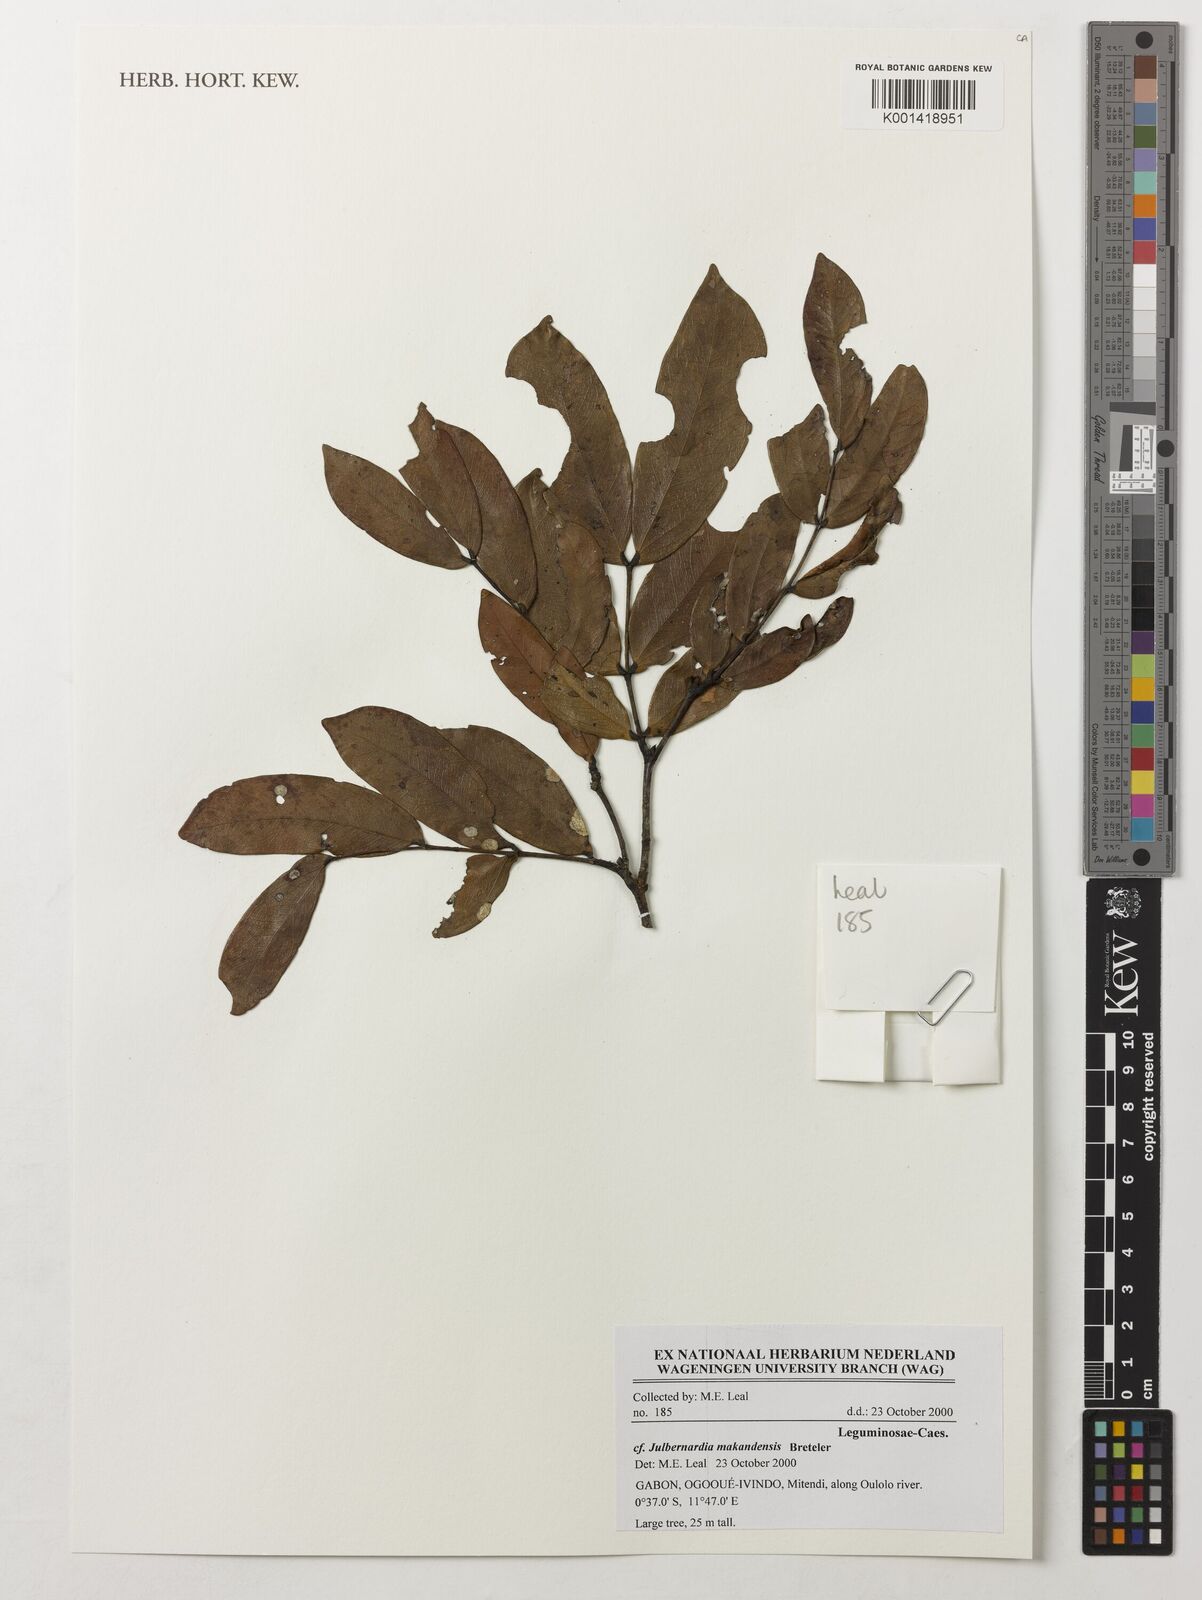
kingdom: Plantae
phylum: Tracheophyta
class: Magnoliopsida
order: Fabales
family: Fabaceae
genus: Julbernardia
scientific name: Julbernardia
